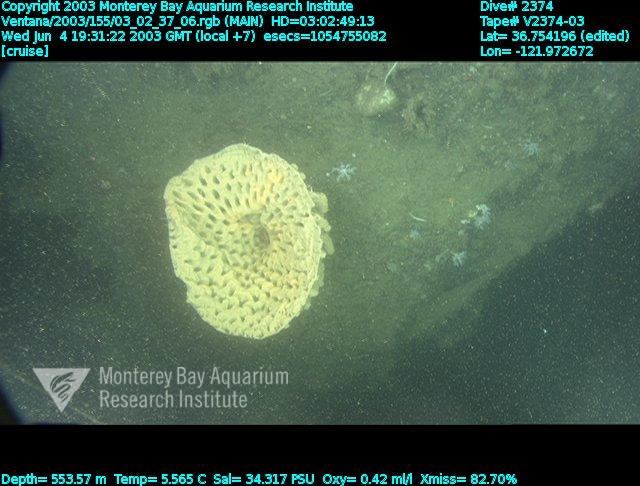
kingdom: Animalia
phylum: Porifera
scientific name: Porifera
